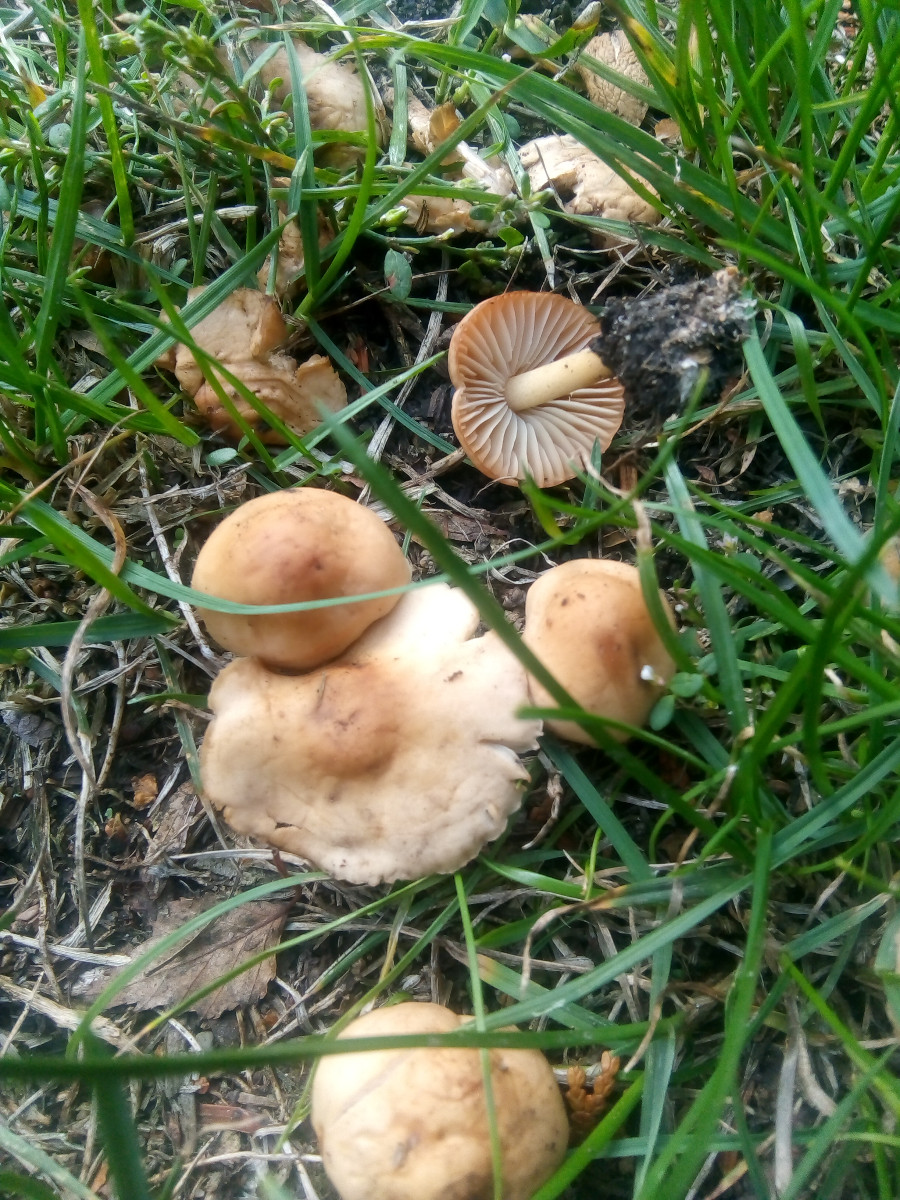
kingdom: Fungi
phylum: Basidiomycota
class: Agaricomycetes
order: Agaricales
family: Marasmiaceae
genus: Marasmius
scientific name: Marasmius oreades
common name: elledans-bruskhat
